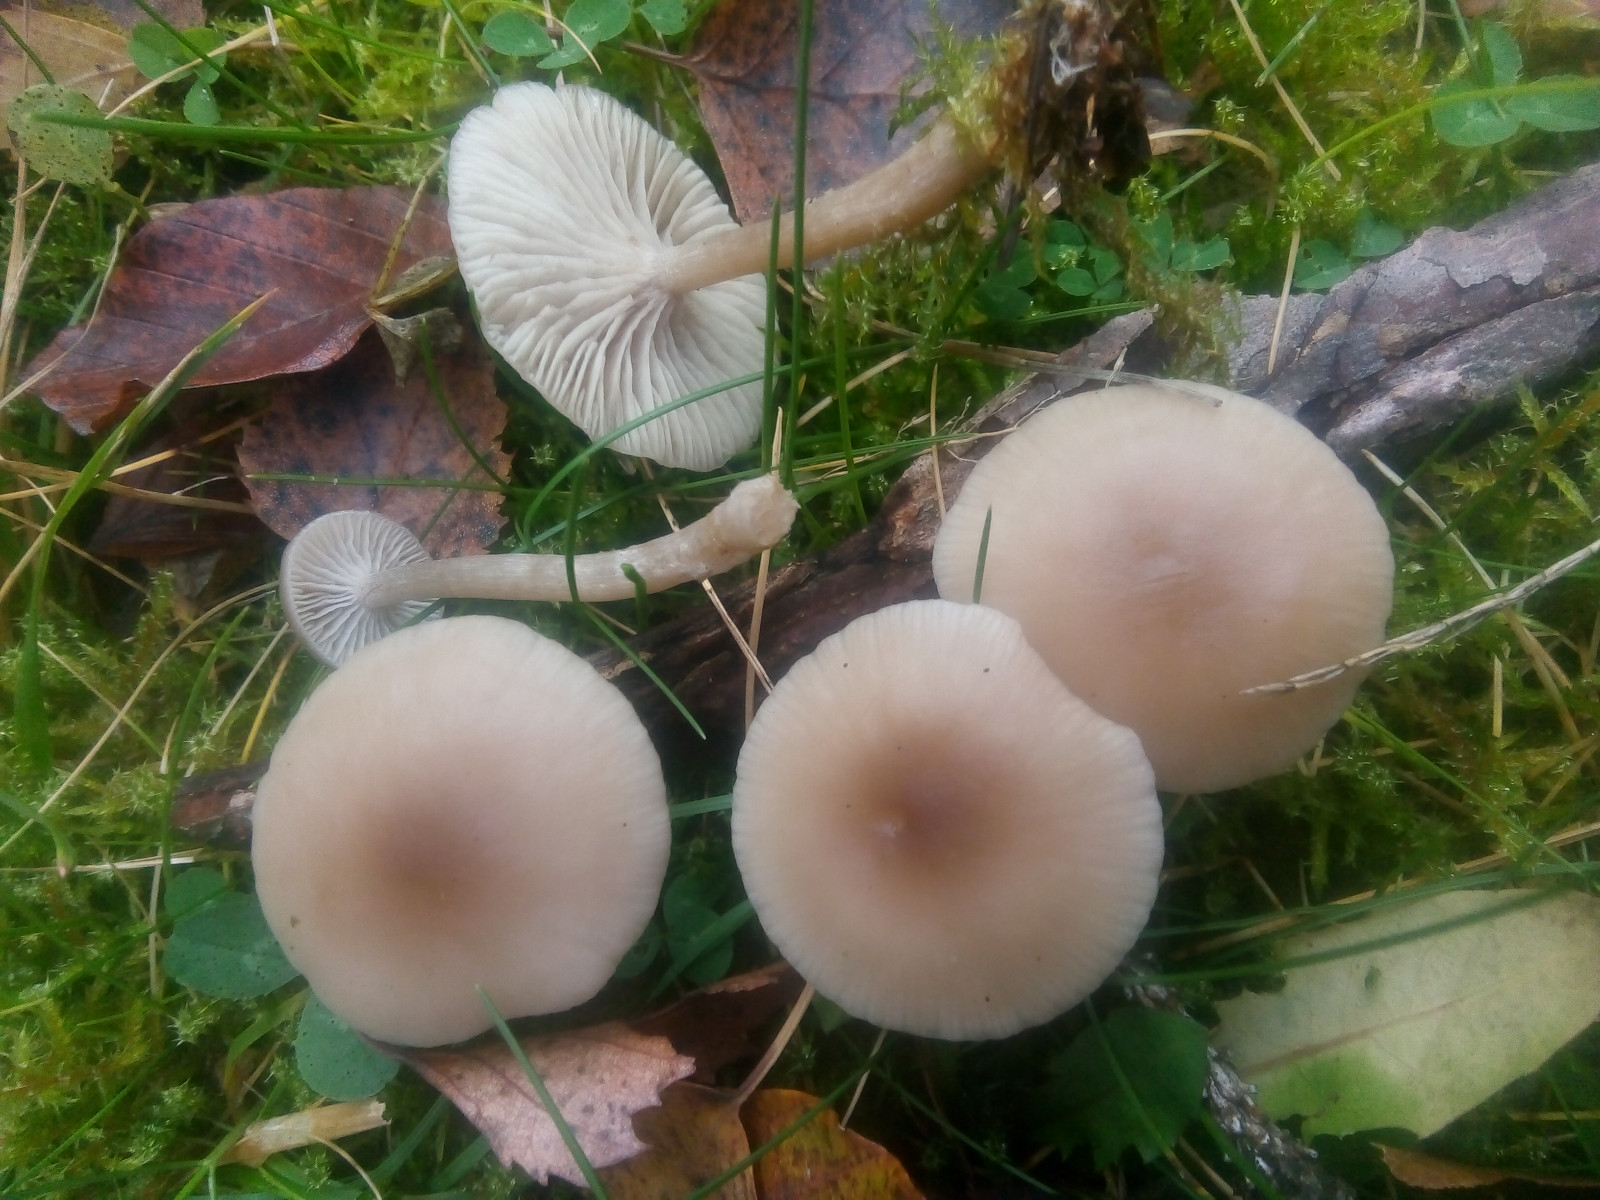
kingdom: Fungi
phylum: Basidiomycota
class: Agaricomycetes
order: Agaricales
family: Tricholomataceae
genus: Clitocybe
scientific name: Clitocybe fragrans
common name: vellugtende tragthat
